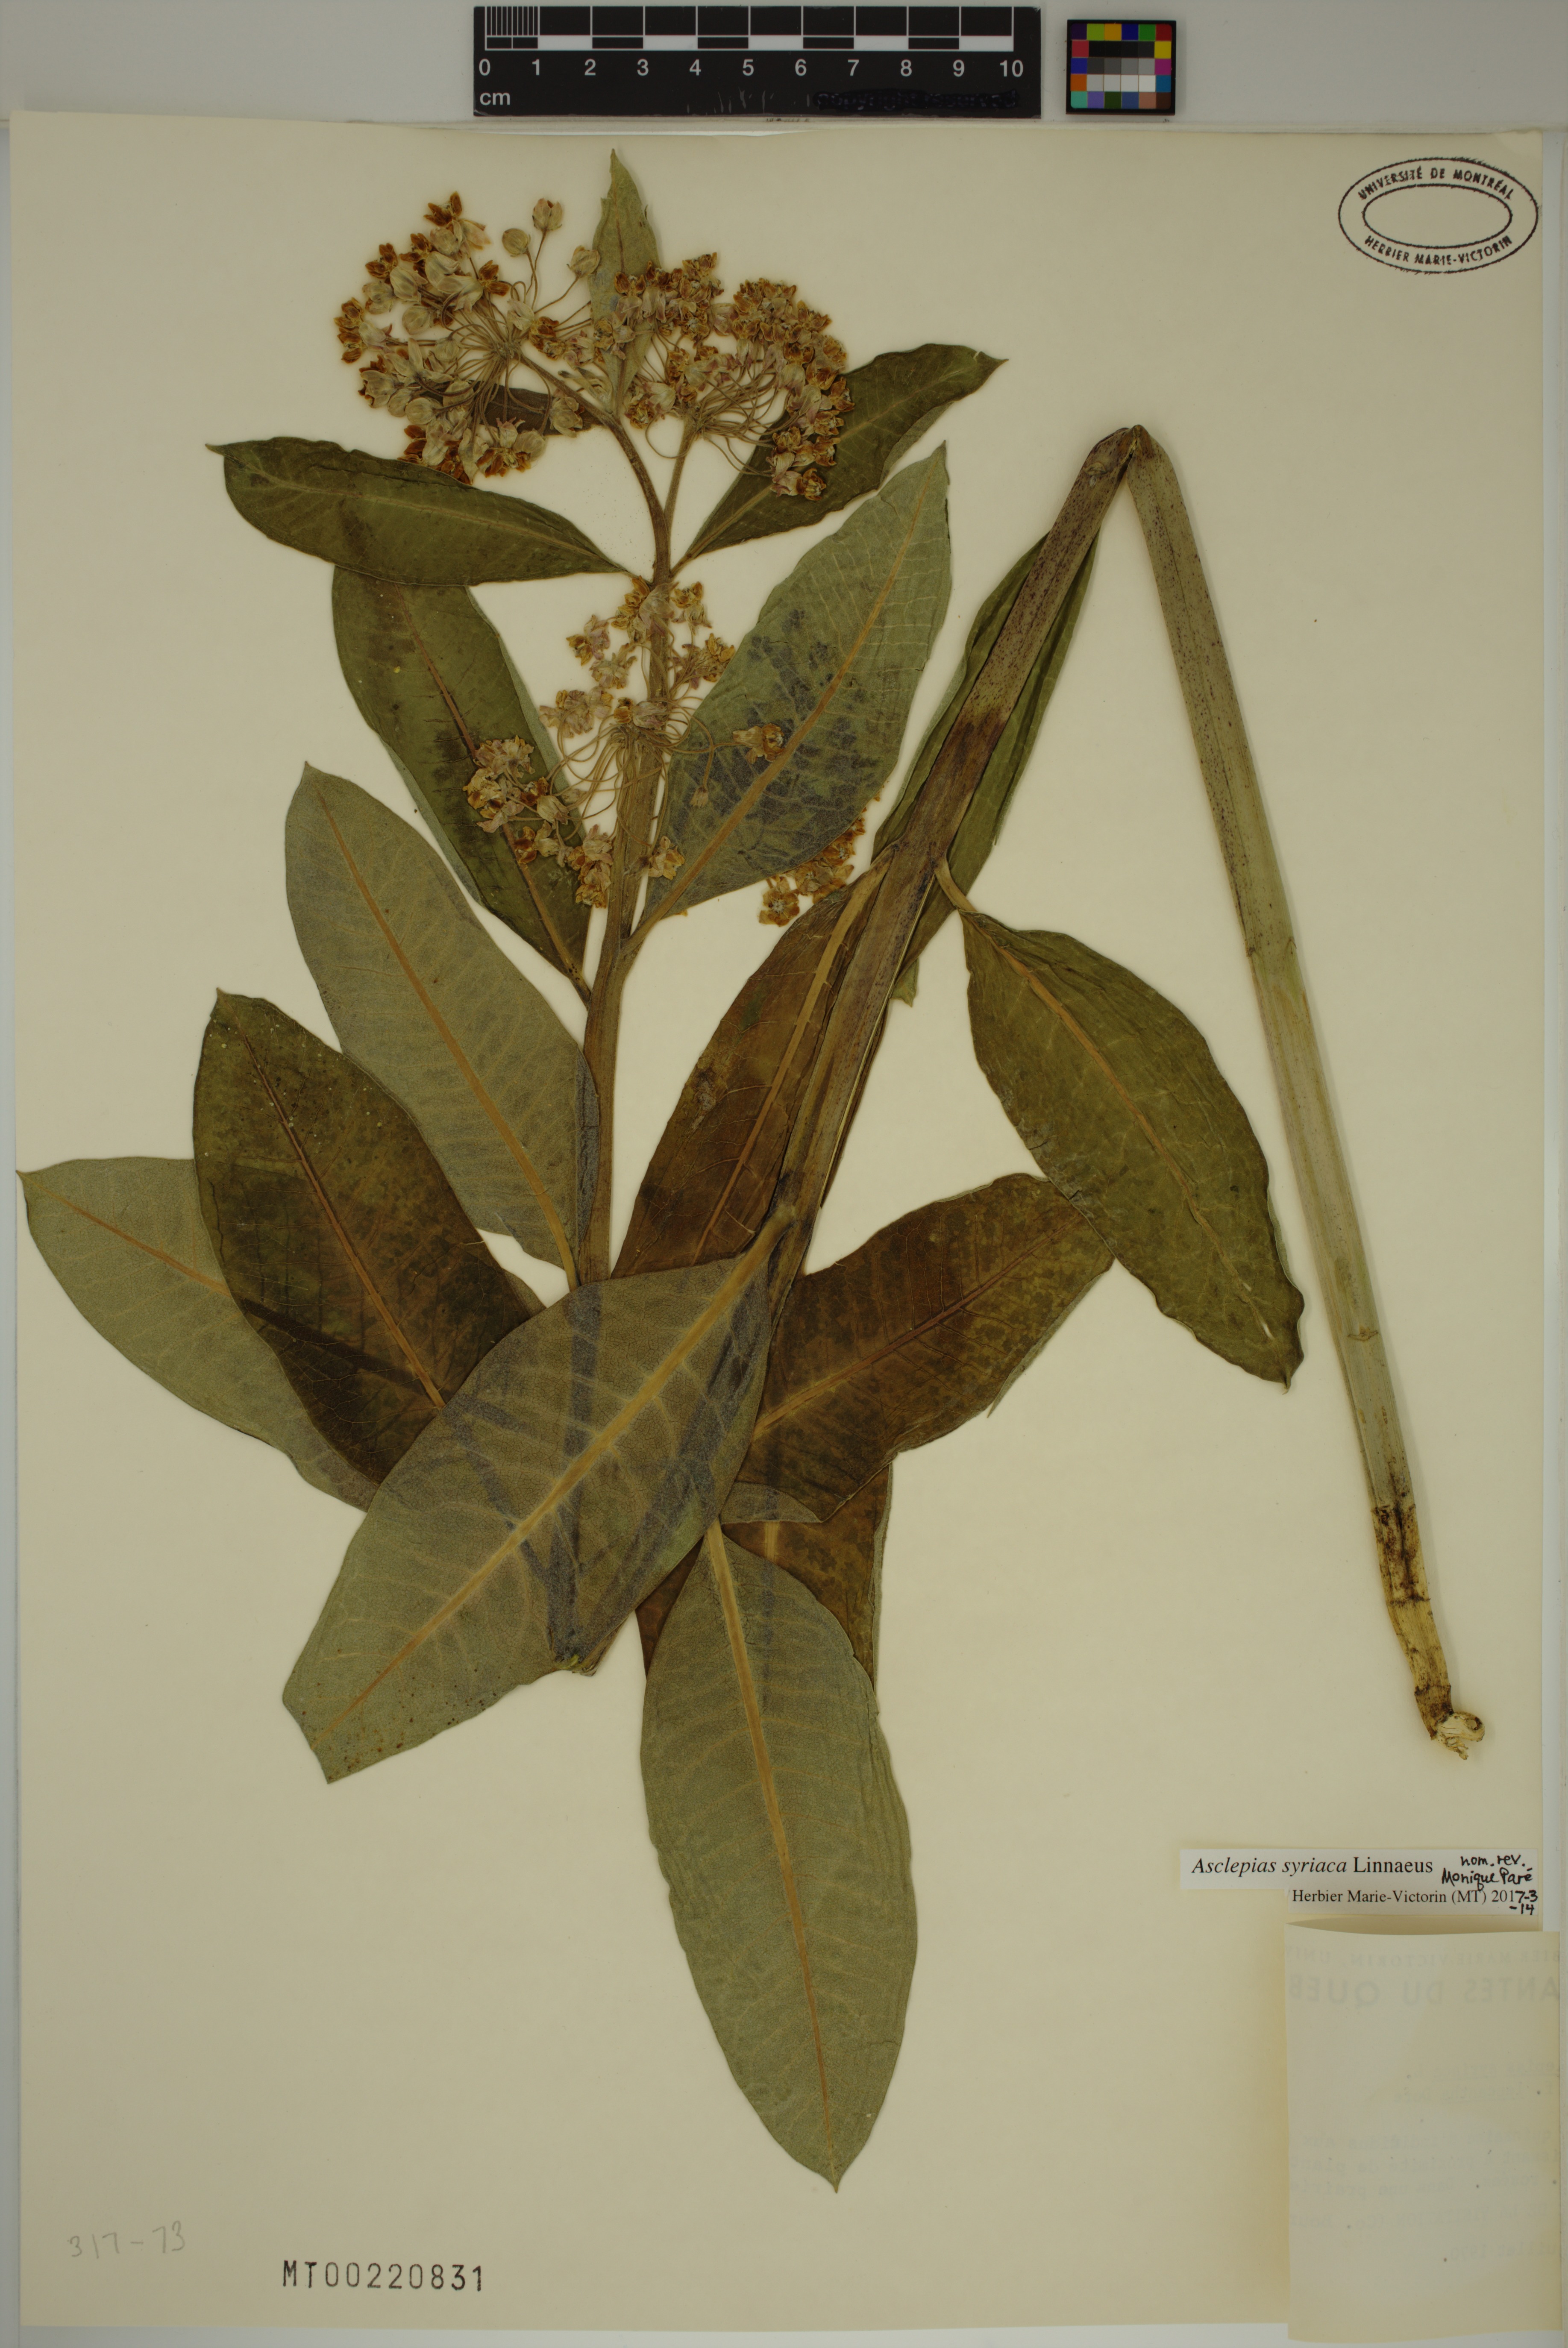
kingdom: Plantae
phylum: Tracheophyta
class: Magnoliopsida
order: Gentianales
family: Apocynaceae
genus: Asclepias
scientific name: Asclepias syriaca
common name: Common milkweed
